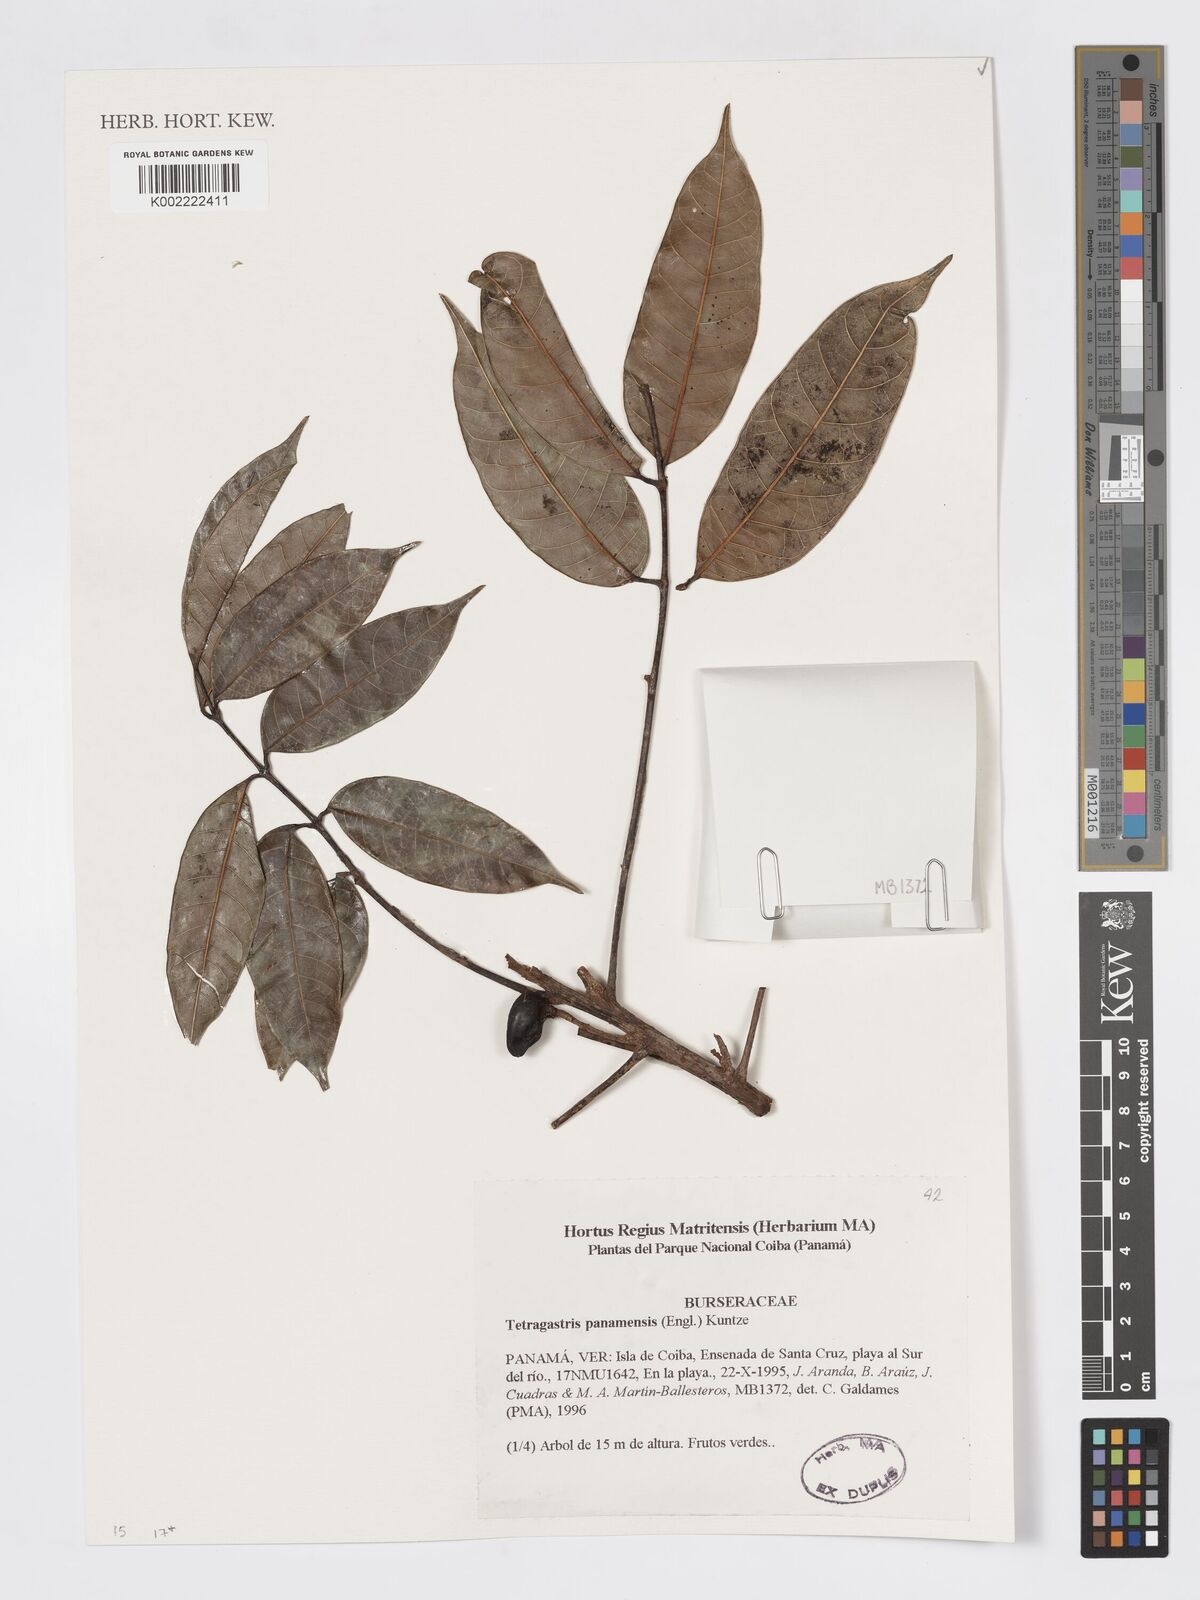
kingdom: Plantae
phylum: Tracheophyta
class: Magnoliopsida
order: Sapindales
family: Burseraceae
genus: Tetragastris
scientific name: Tetragastris panamensis
